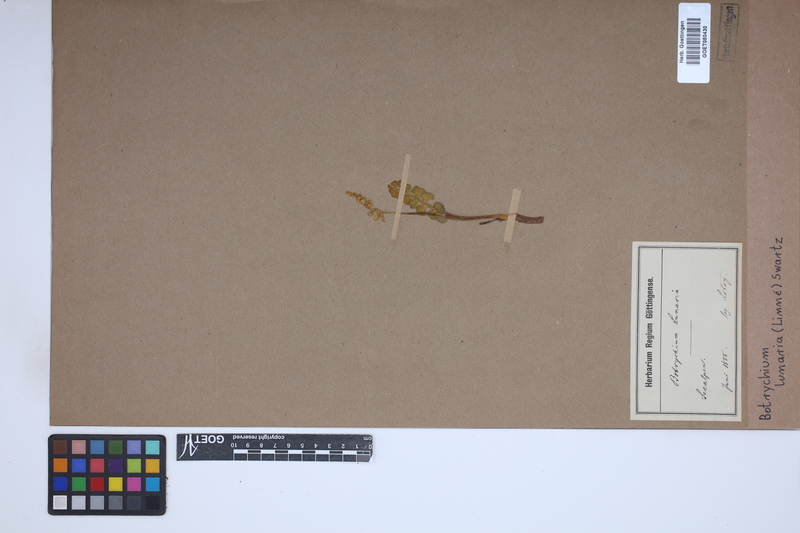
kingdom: Plantae
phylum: Tracheophyta
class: Polypodiopsida
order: Ophioglossales
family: Ophioglossaceae
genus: Botrychium
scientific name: Botrychium lunaria
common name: Moonwort
